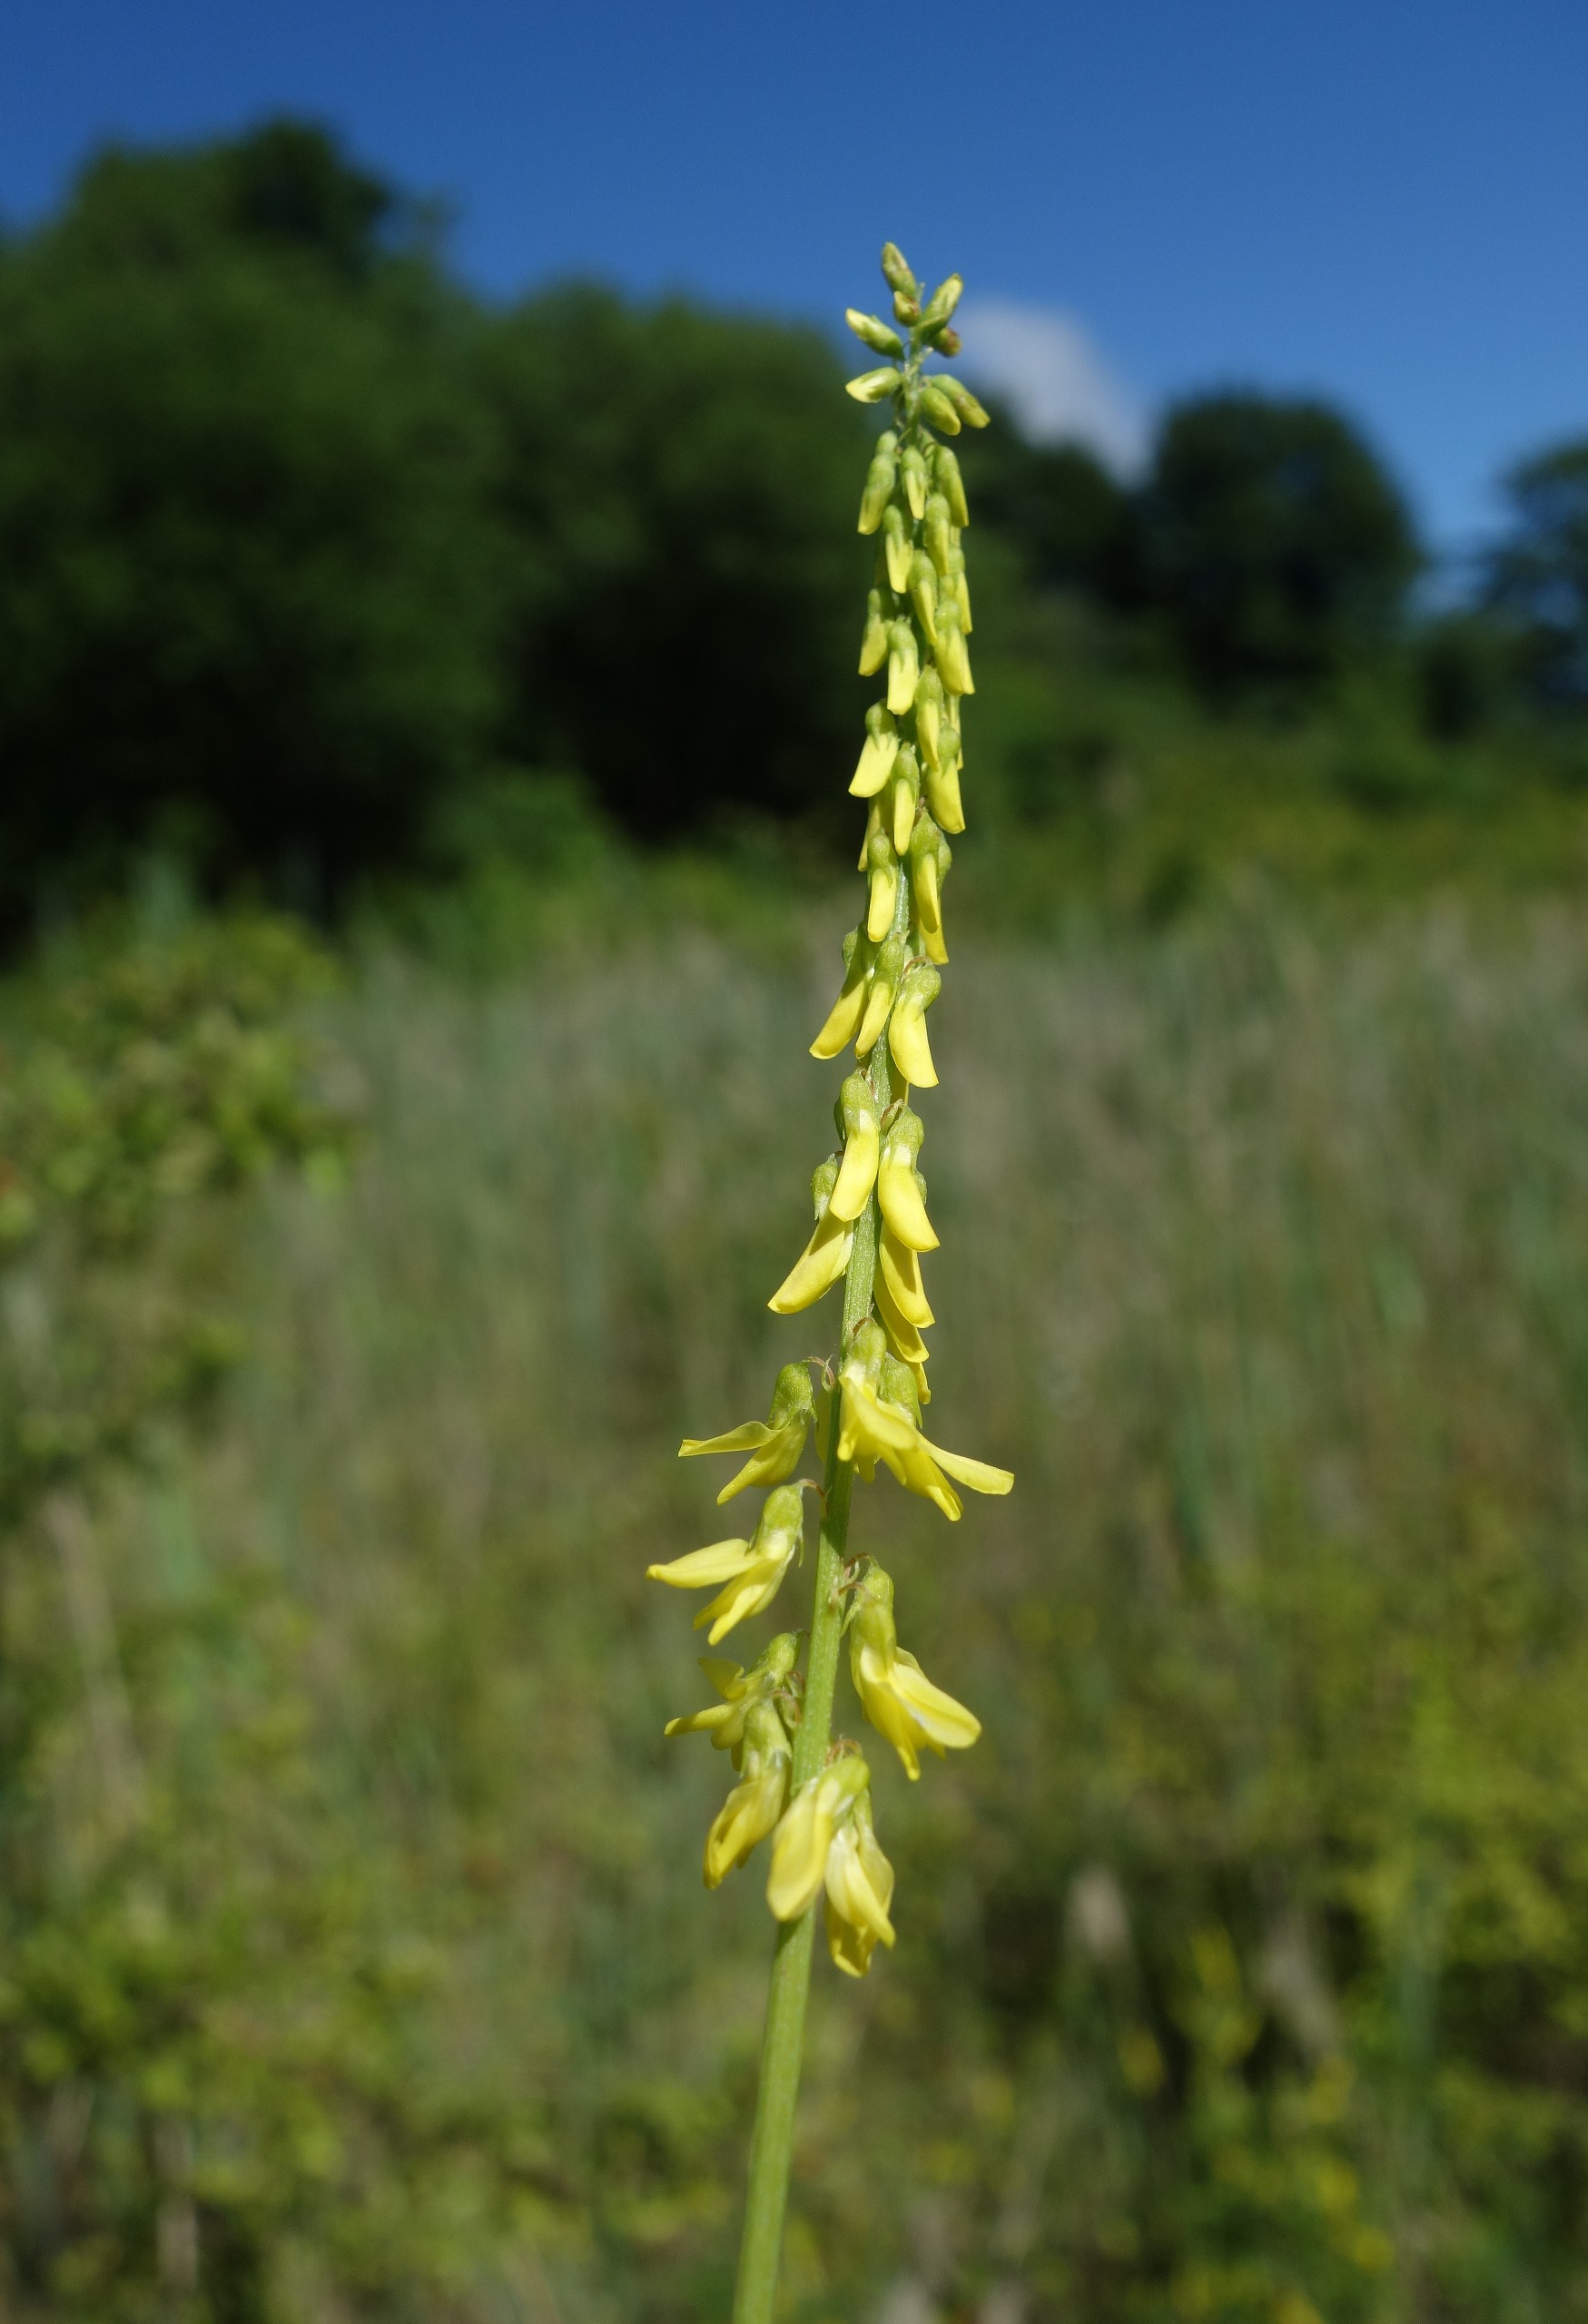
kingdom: Plantae
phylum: Tracheophyta
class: Magnoliopsida
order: Fabales
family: Fabaceae
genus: Melilotus
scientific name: Melilotus officinalis
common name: Mark-stenkløver
